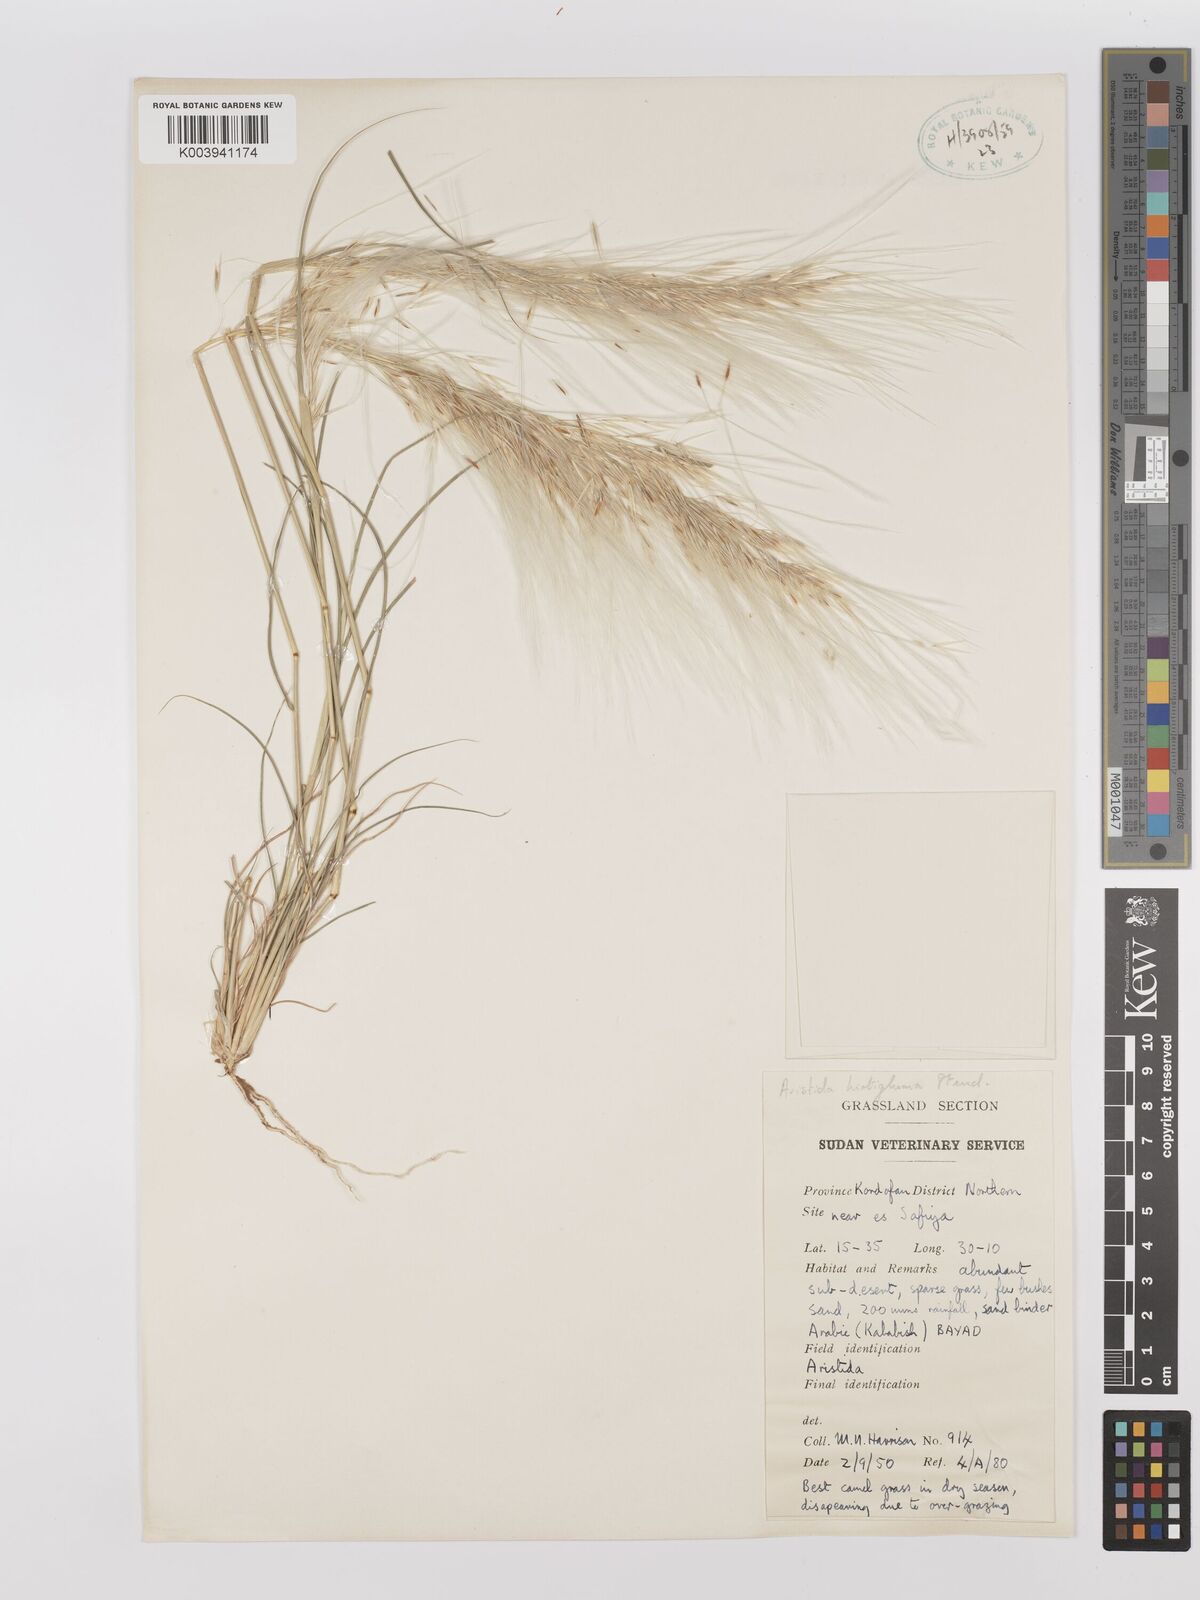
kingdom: Plantae
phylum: Tracheophyta
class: Liliopsida
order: Poales
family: Poaceae
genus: Stipagrostis
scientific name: Stipagrostis hirtigluma
